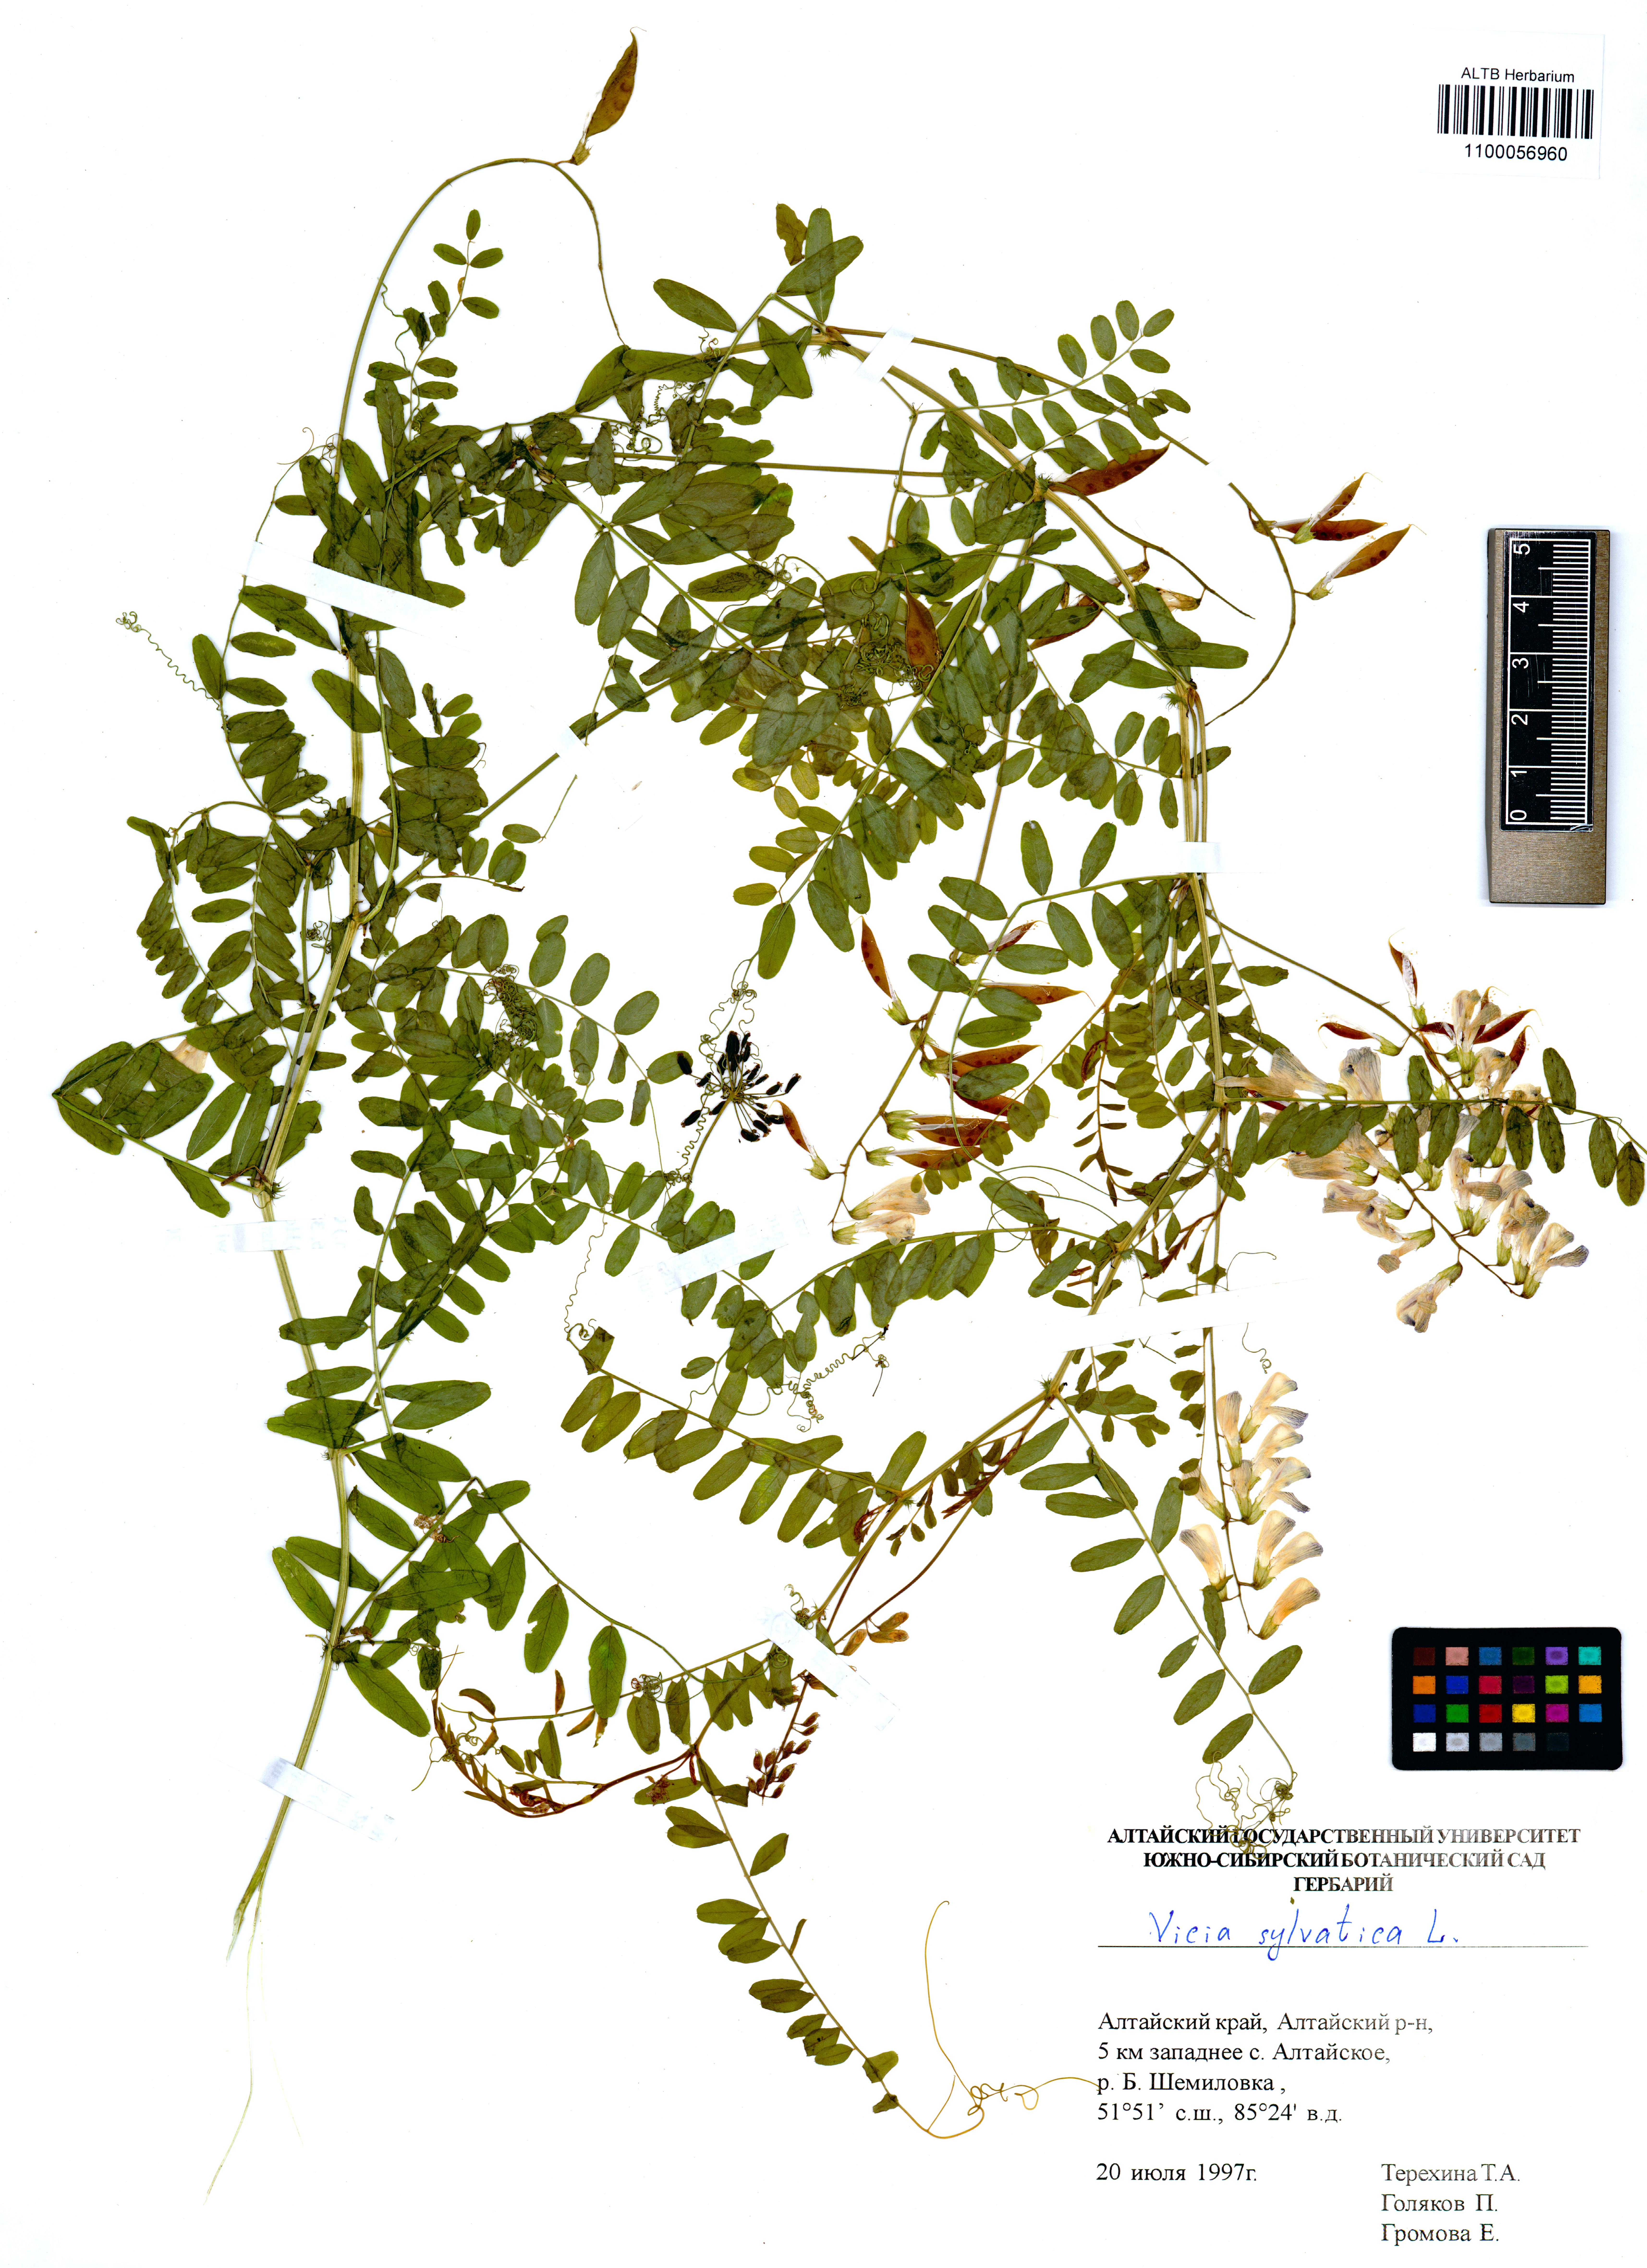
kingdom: Plantae
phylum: Tracheophyta
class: Magnoliopsida
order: Fabales
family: Fabaceae
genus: Vicia
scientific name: Vicia sylvatica
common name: Wood vetch
